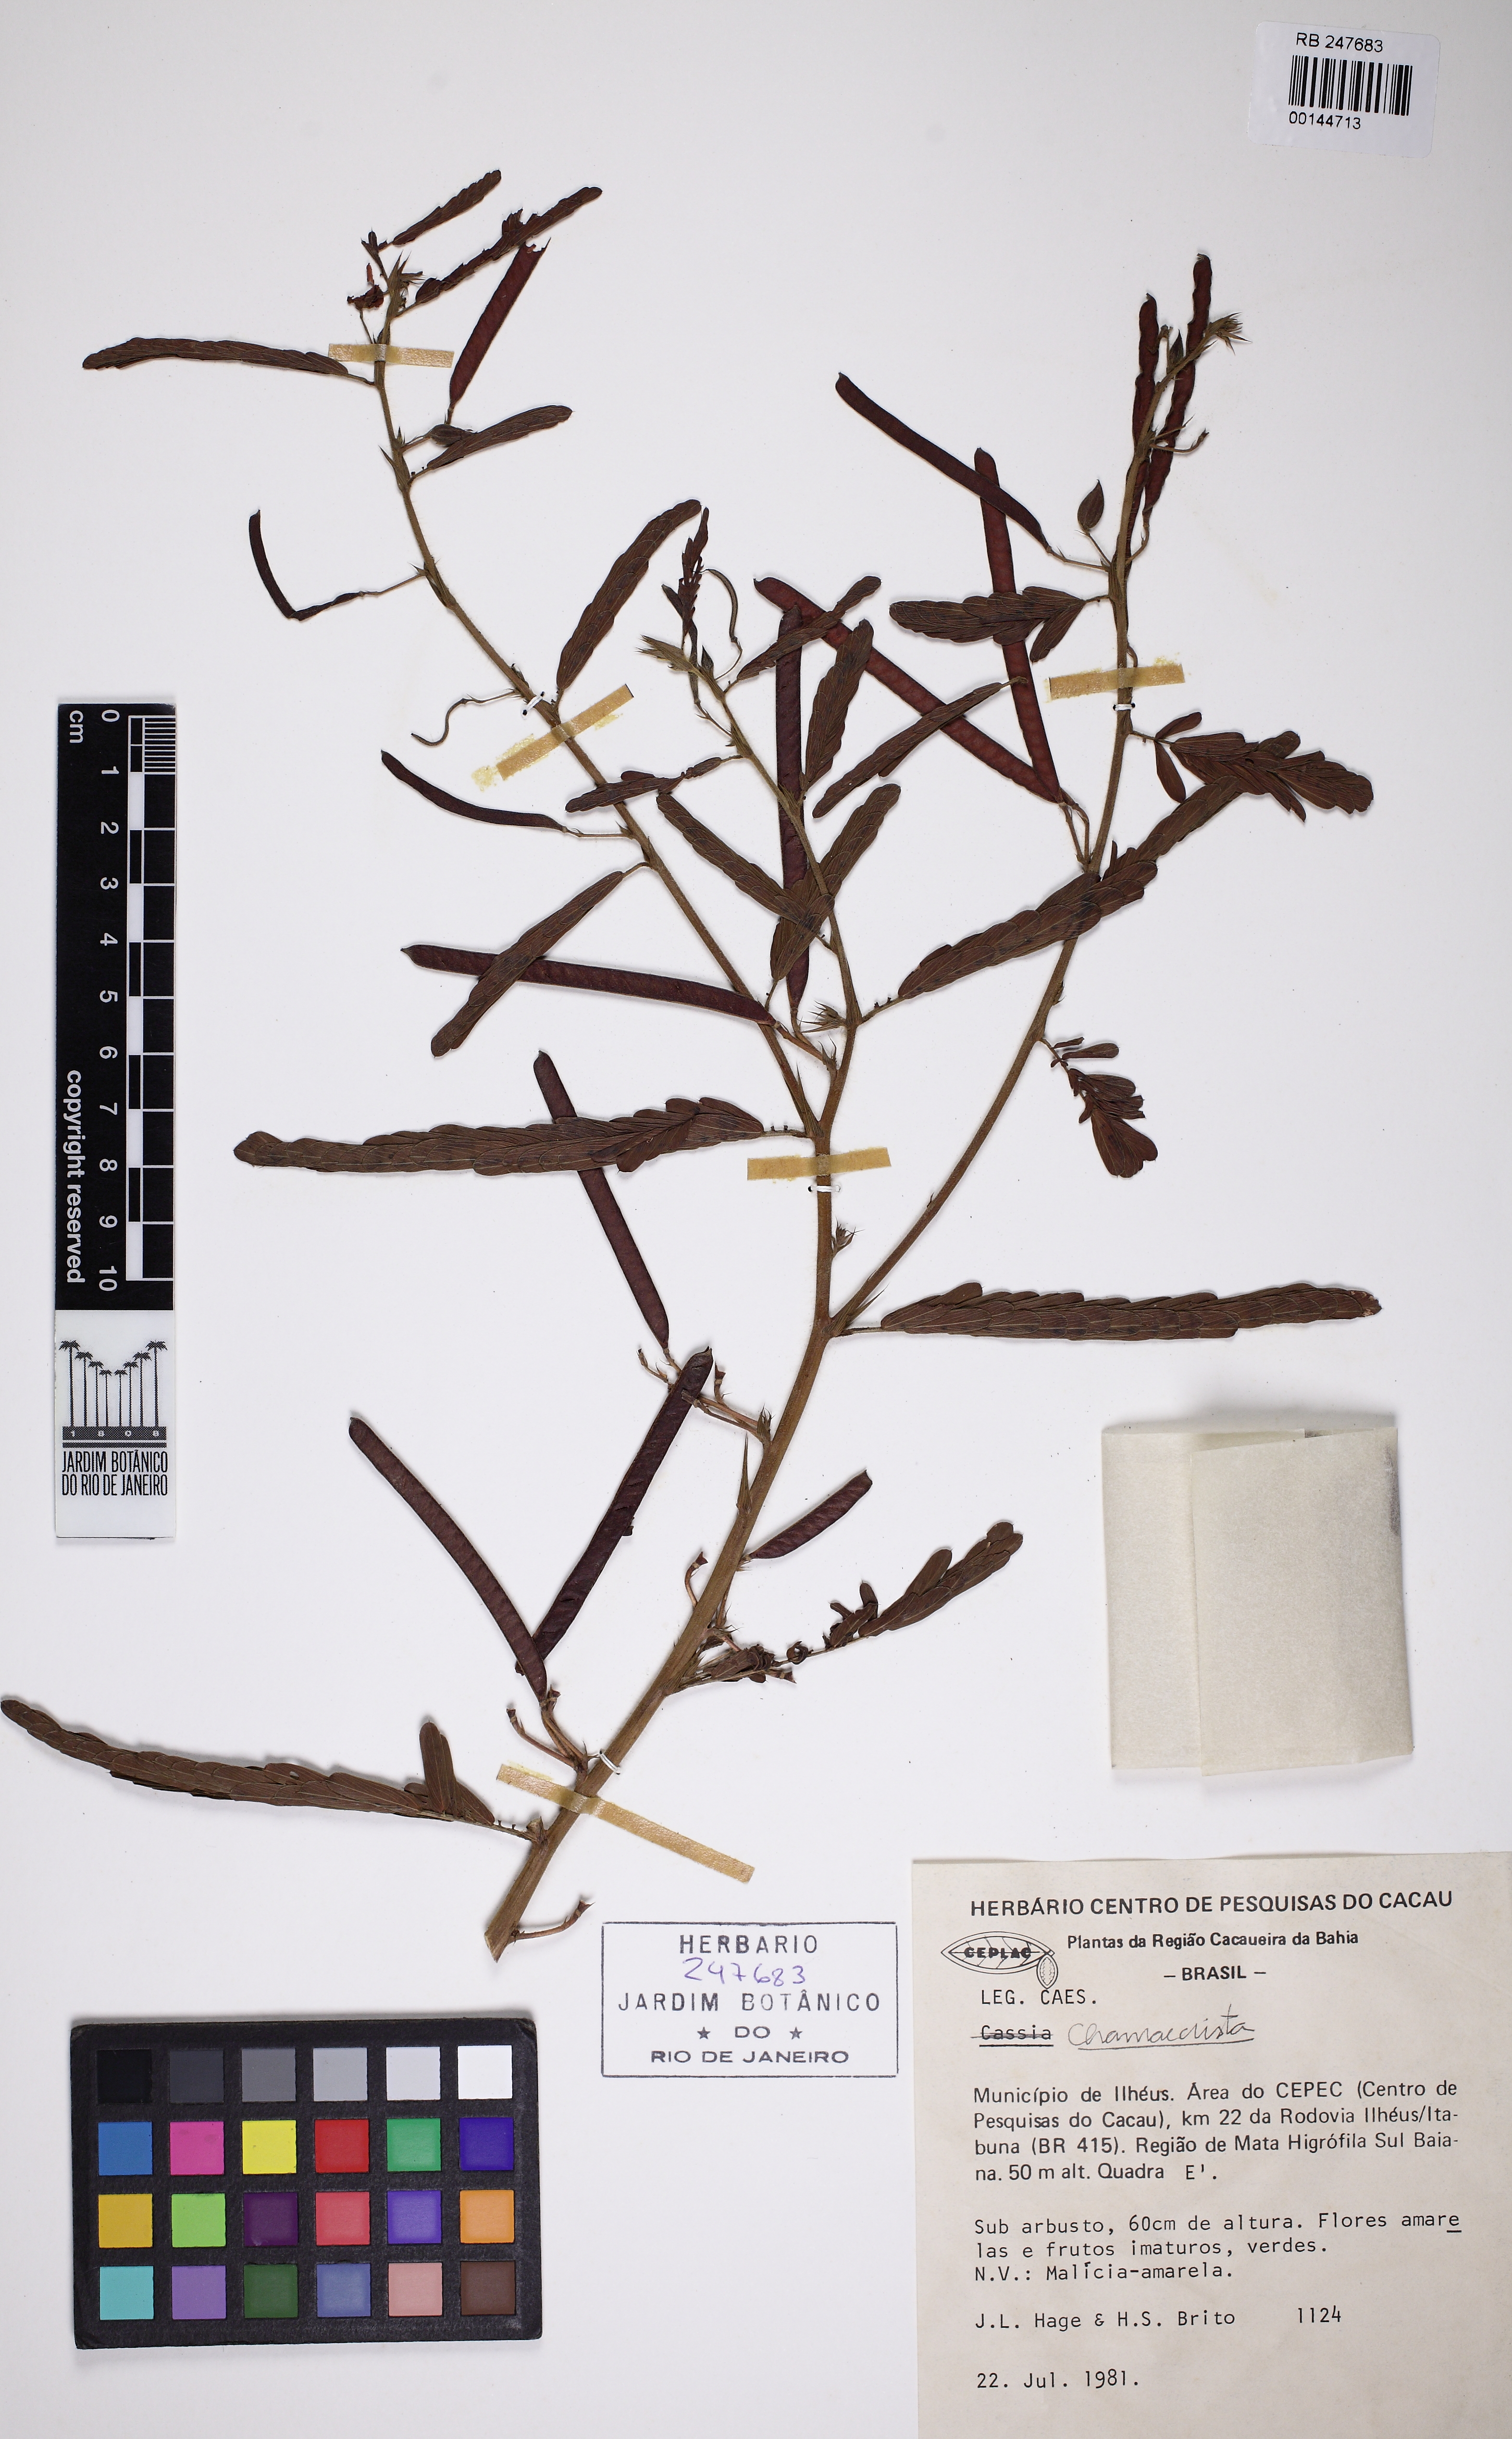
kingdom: Plantae
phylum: Tracheophyta
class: Magnoliopsida
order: Fabales
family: Fabaceae
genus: Chamaecrista
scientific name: Chamaecrista
